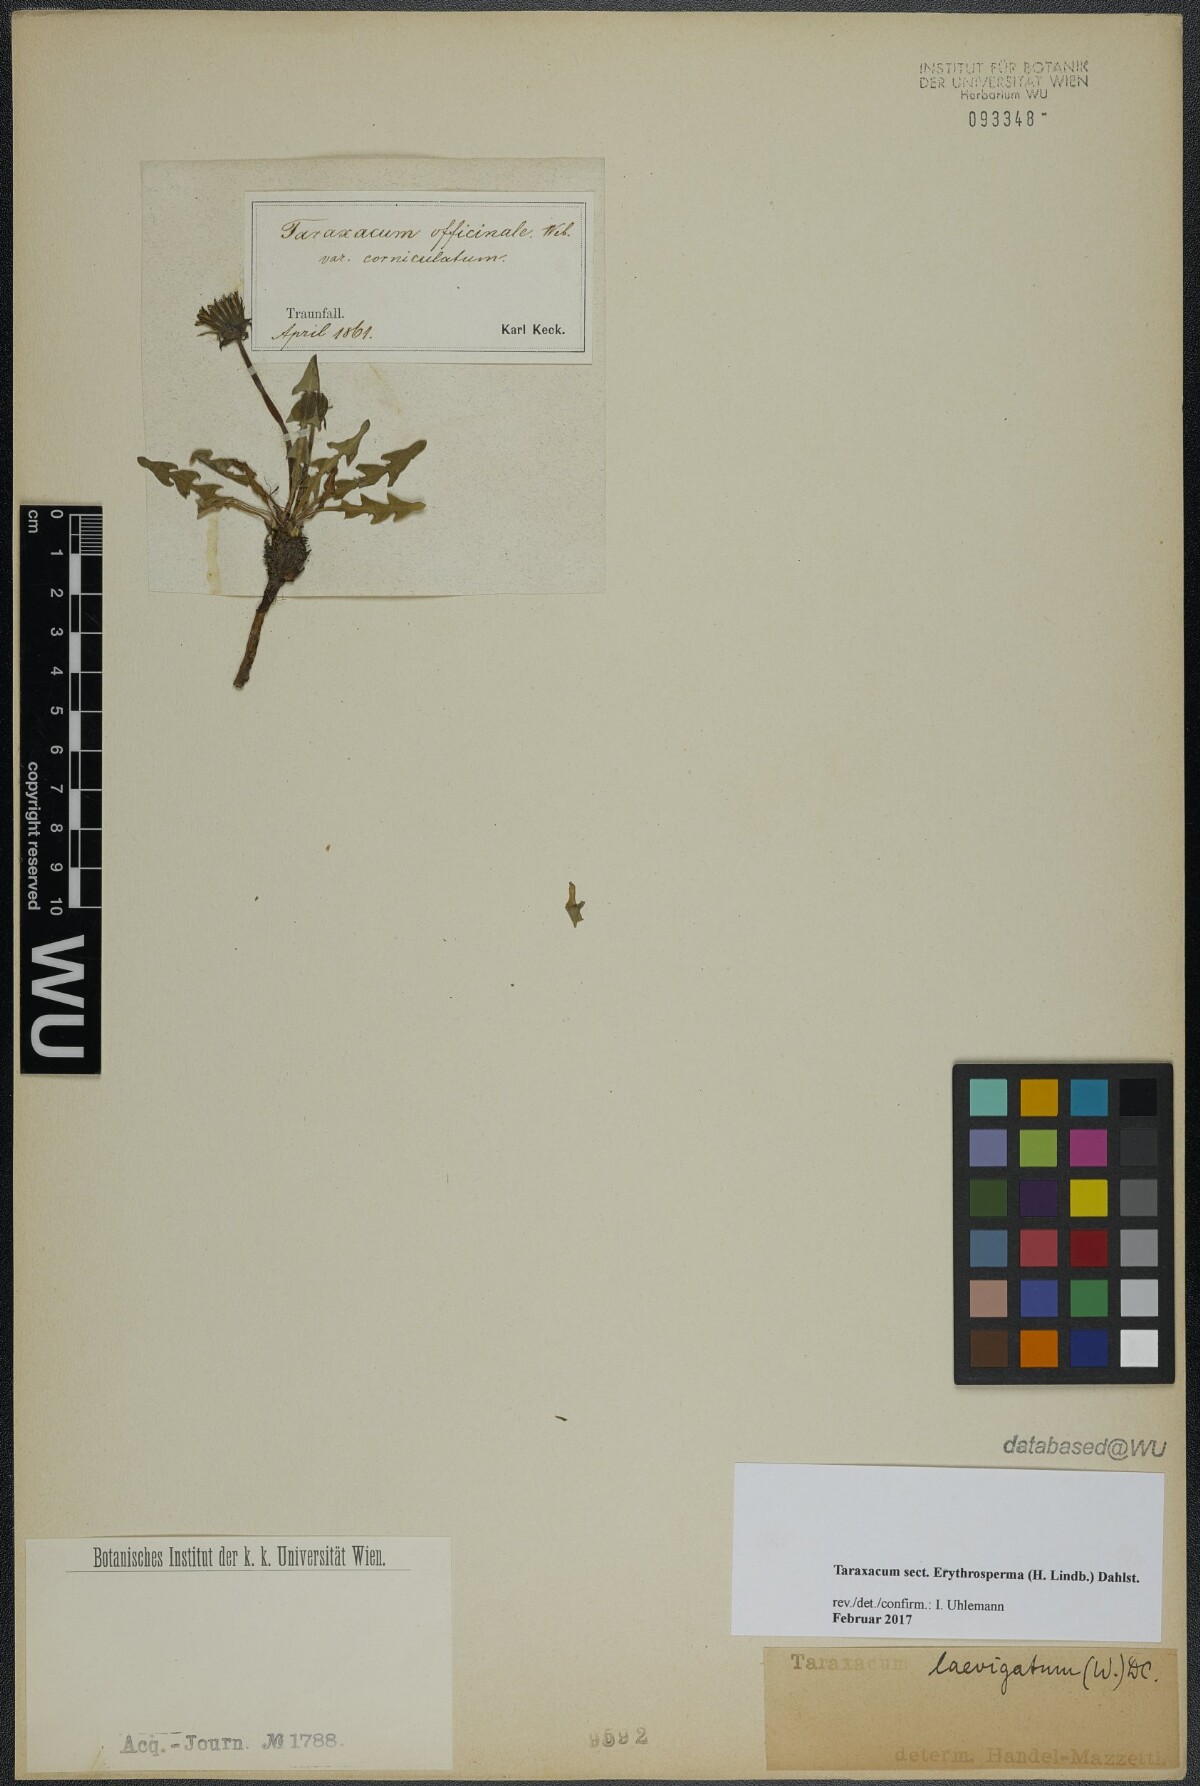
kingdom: Plantae
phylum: Tracheophyta
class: Magnoliopsida
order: Asterales
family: Asteraceae
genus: Taraxacum
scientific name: Taraxacum
